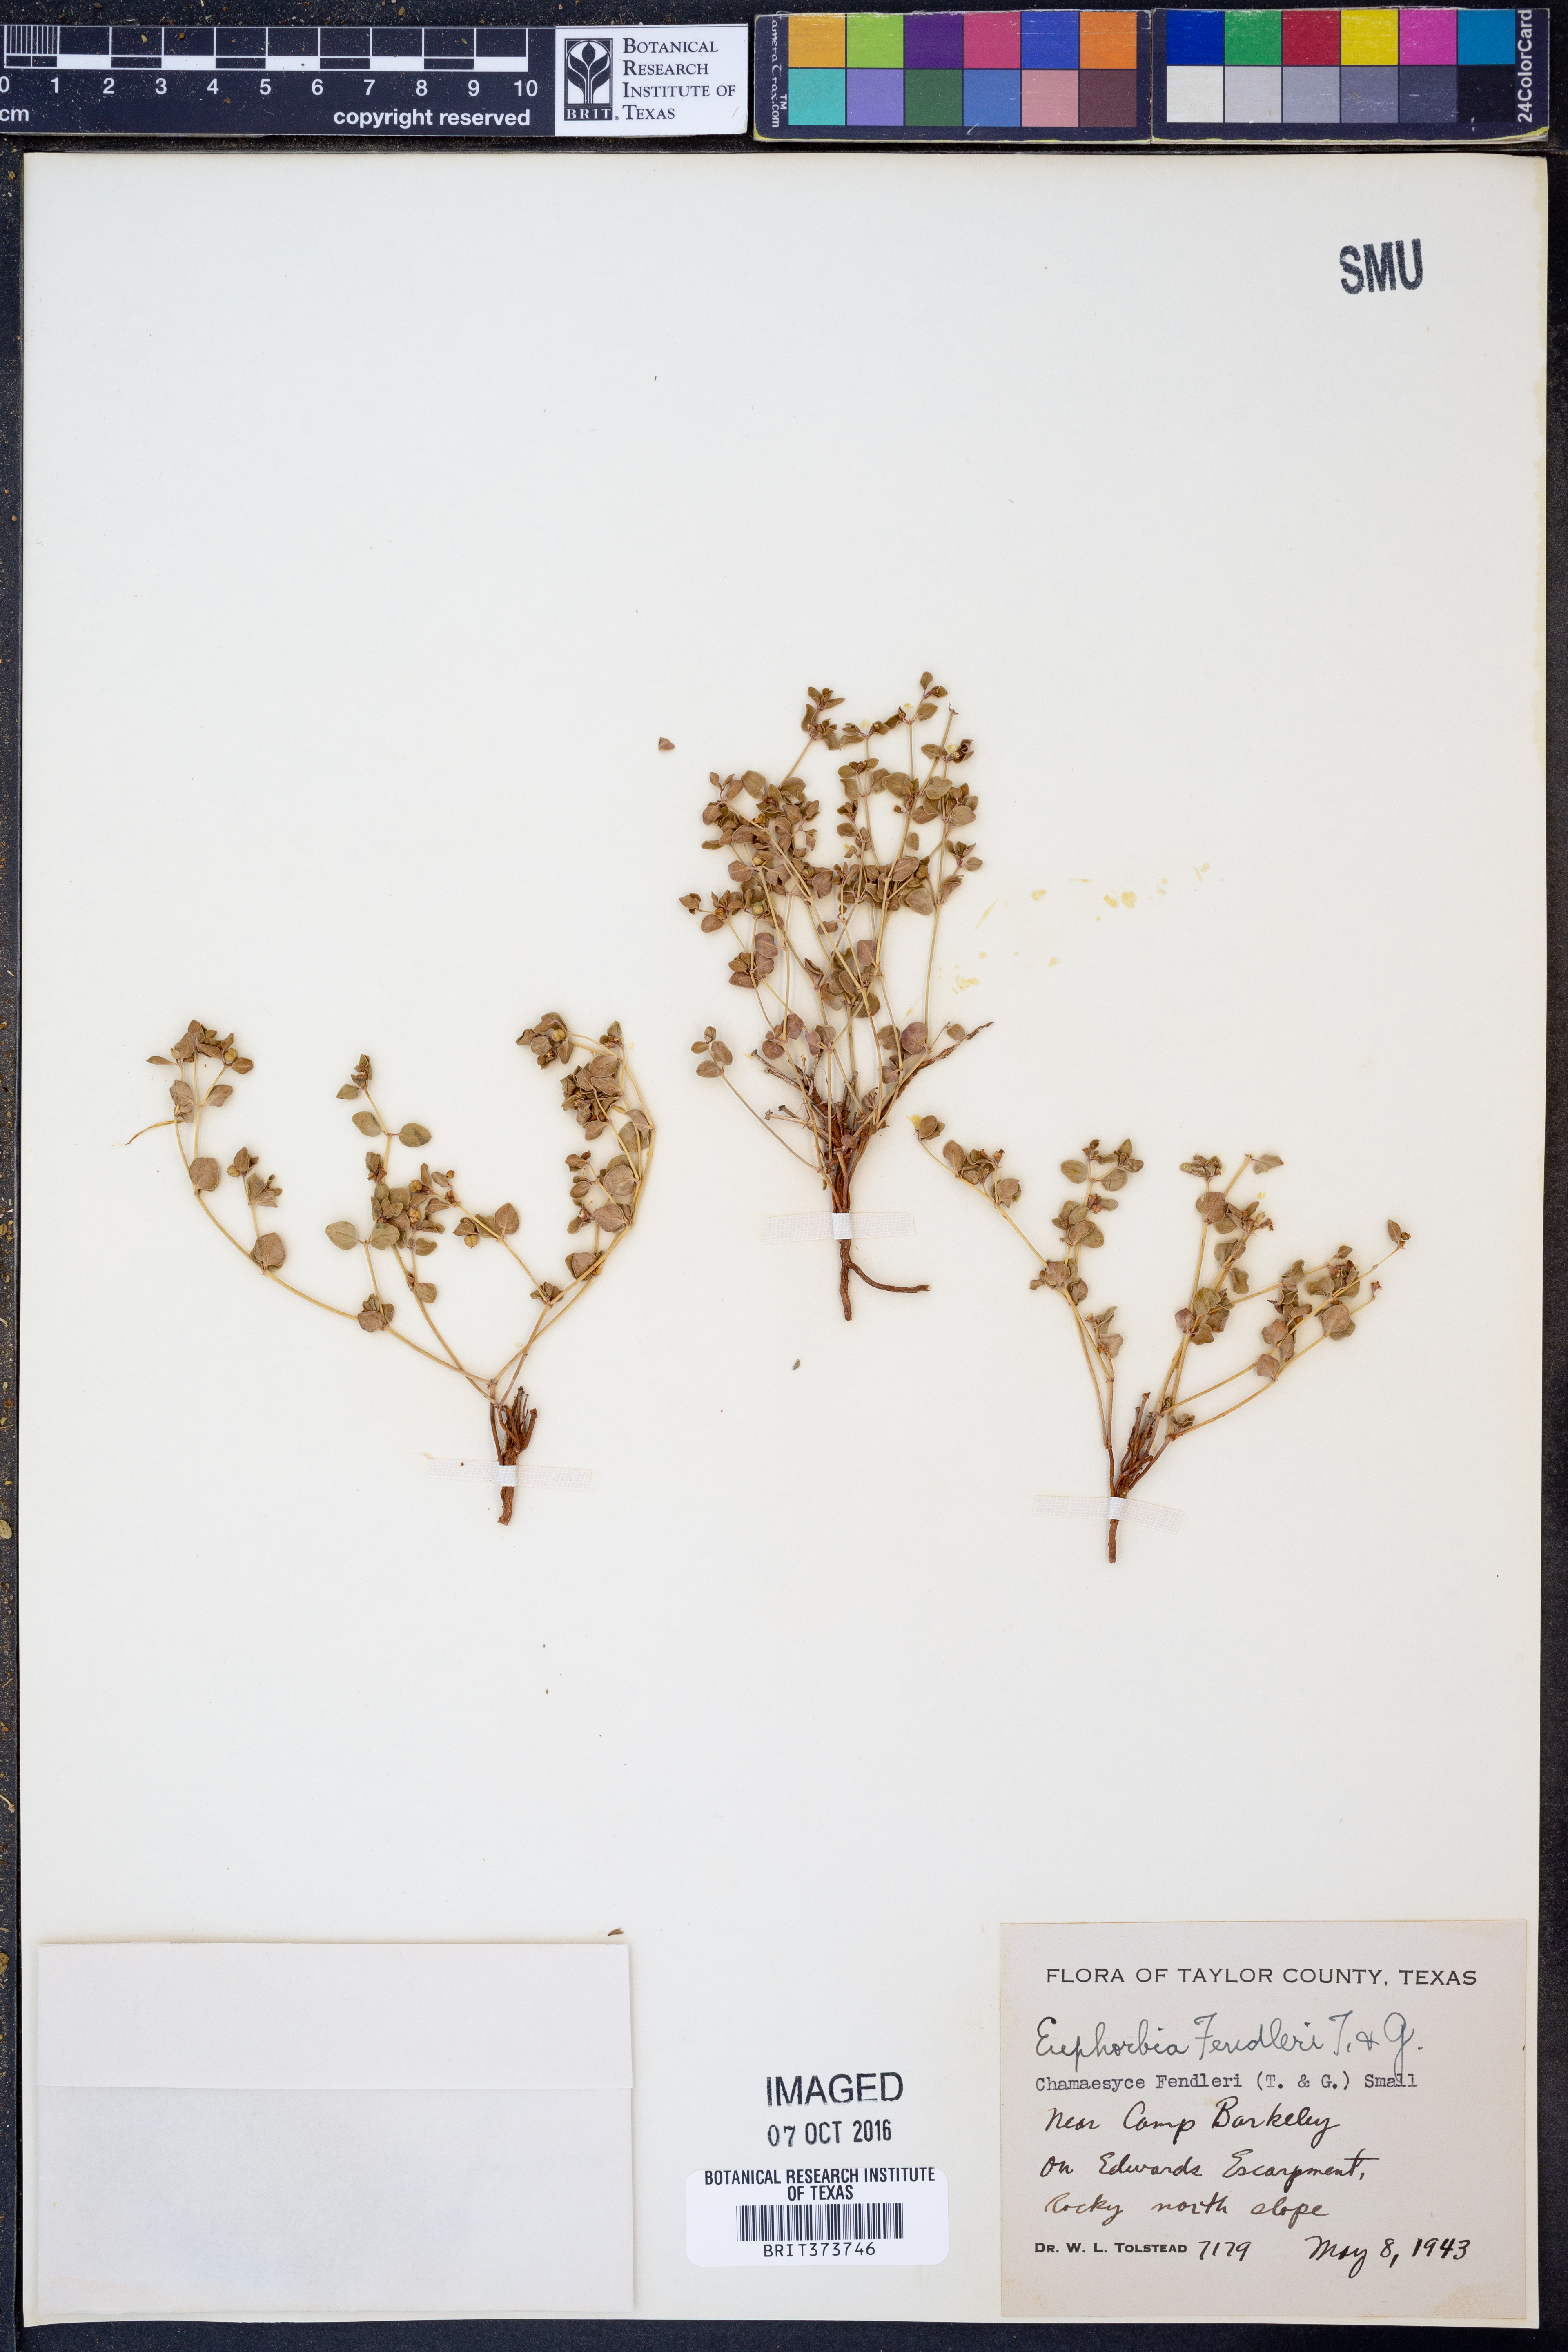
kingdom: Plantae
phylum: Tracheophyta
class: Magnoliopsida
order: Malpighiales
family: Euphorbiaceae
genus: Euphorbia
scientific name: Euphorbia fendleri
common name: Fendler's euphorbia
